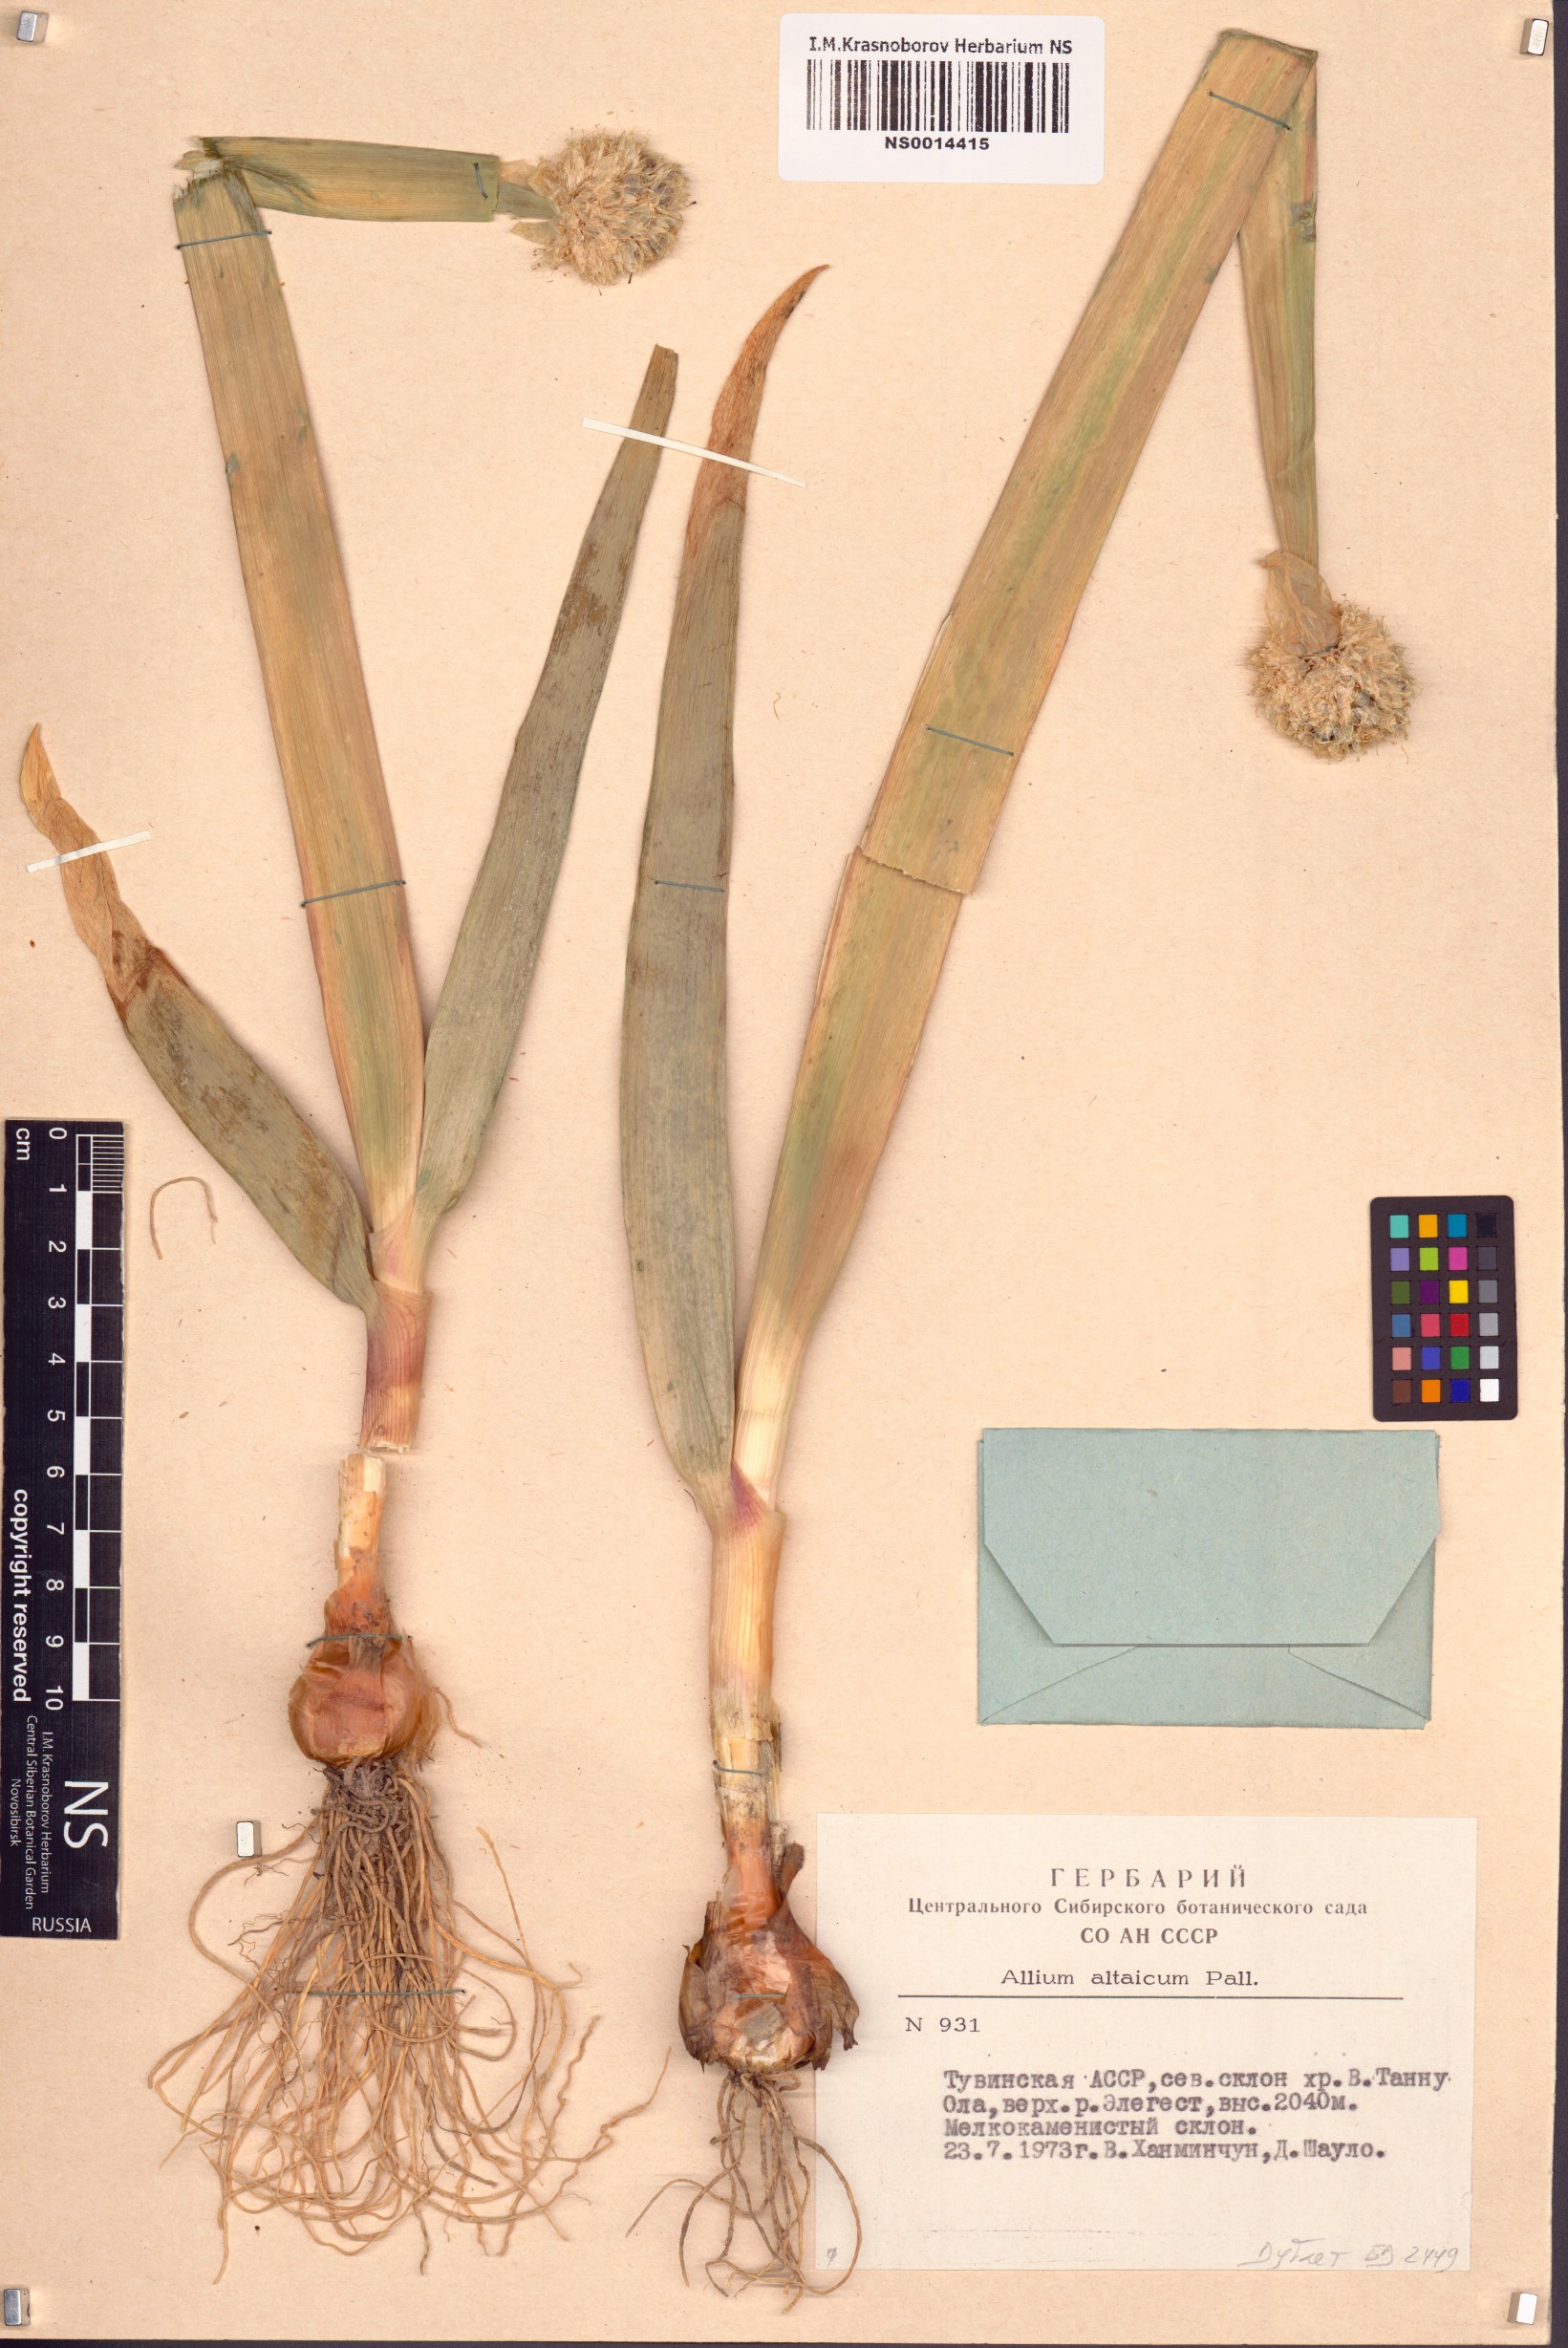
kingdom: Plantae
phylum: Tracheophyta
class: Liliopsida
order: Asparagales
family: Amaryllidaceae
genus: Allium
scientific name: Allium altaicum
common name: Altai onion
